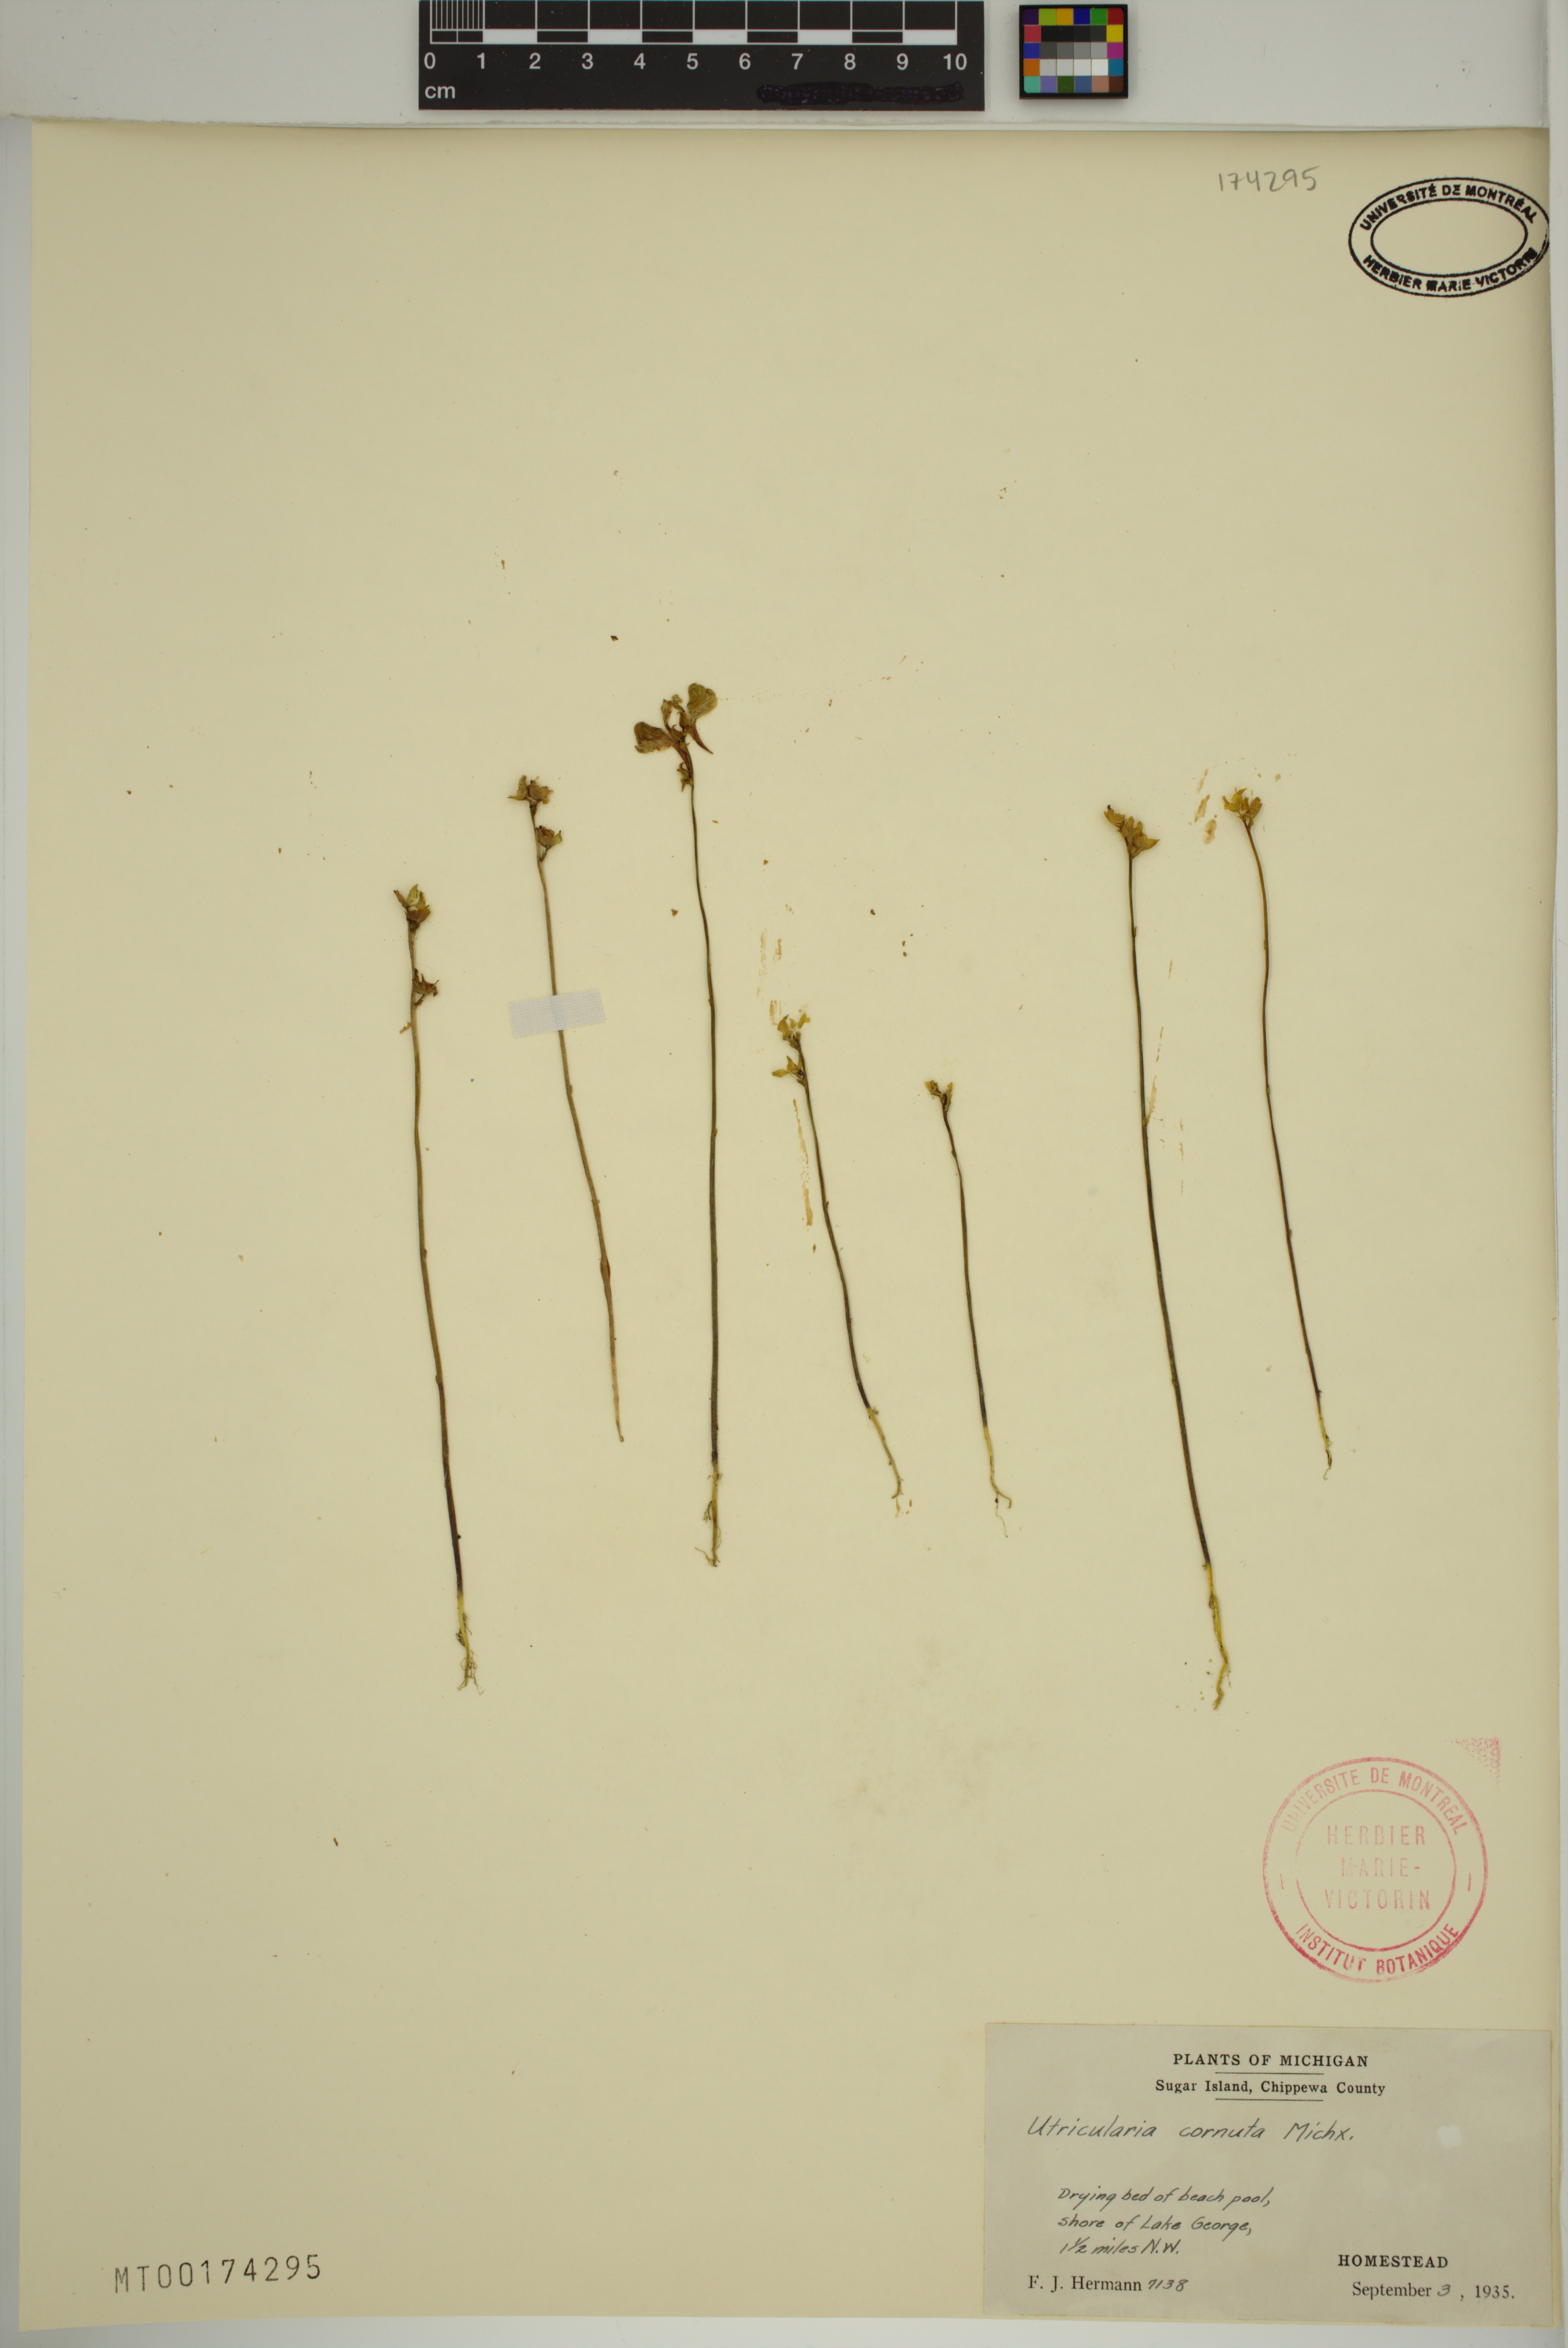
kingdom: Plantae
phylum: Tracheophyta
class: Magnoliopsida
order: Lamiales
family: Lentibulariaceae
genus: Utricularia
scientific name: Utricularia cornuta
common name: Horned bladderwort
